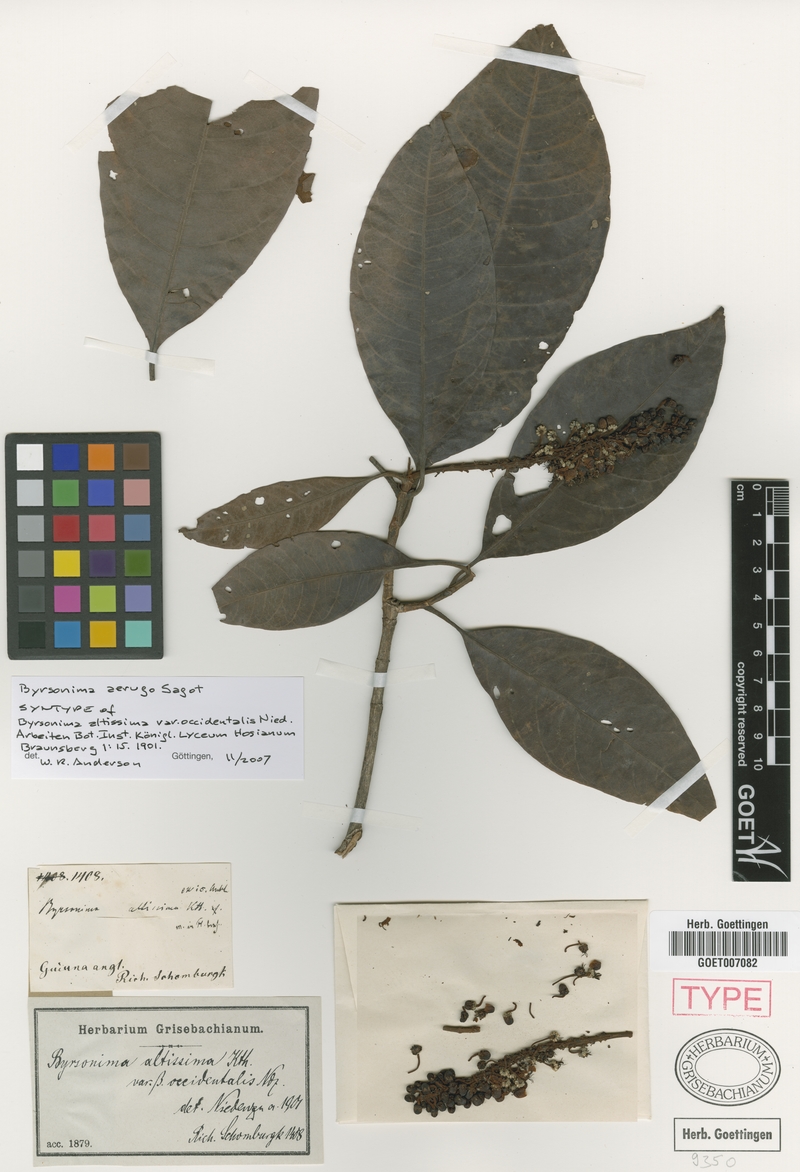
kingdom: Plantae
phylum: Tracheophyta
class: Magnoliopsida
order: Malpighiales
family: Malpighiaceae
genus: Byrsonima
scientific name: Byrsonima aerugo
